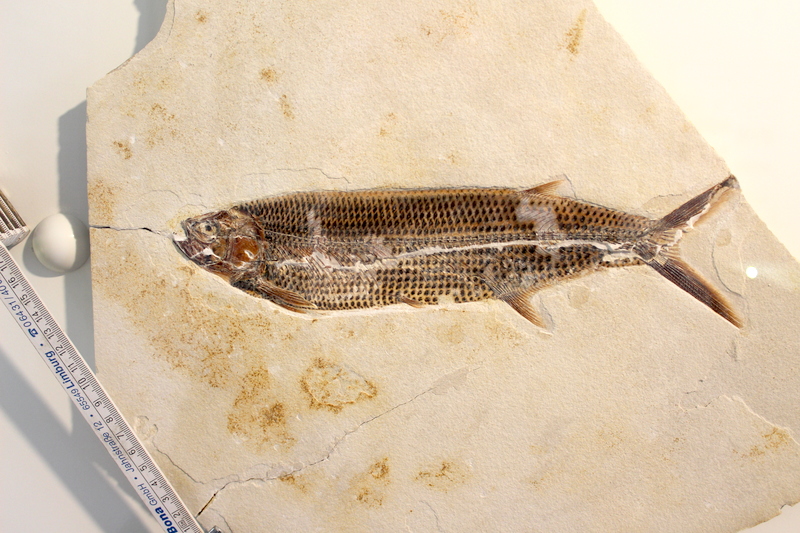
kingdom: Animalia
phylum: Chordata
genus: Thrissops
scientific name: Thrissops formosus
